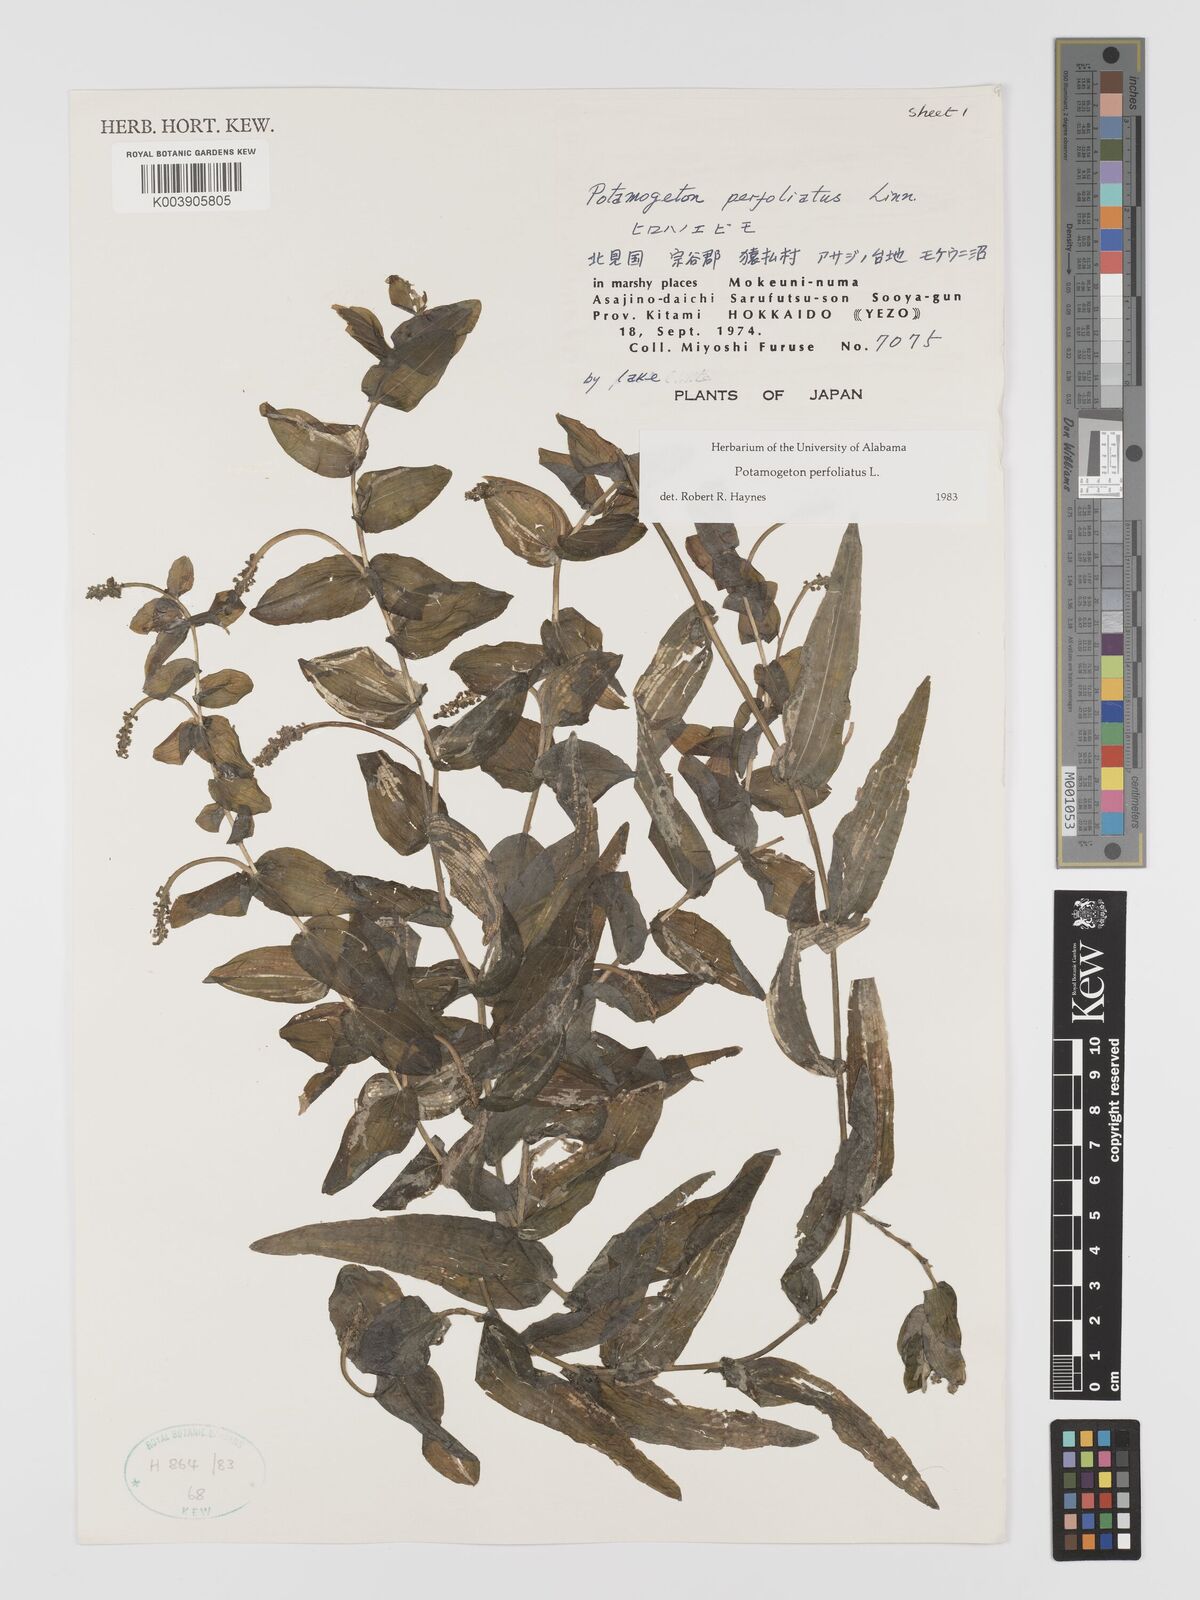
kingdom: Plantae
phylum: Tracheophyta
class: Liliopsida
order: Alismatales
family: Potamogetonaceae
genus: Potamogeton
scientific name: Potamogeton perfoliatus
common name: Perfoliate pondweed
